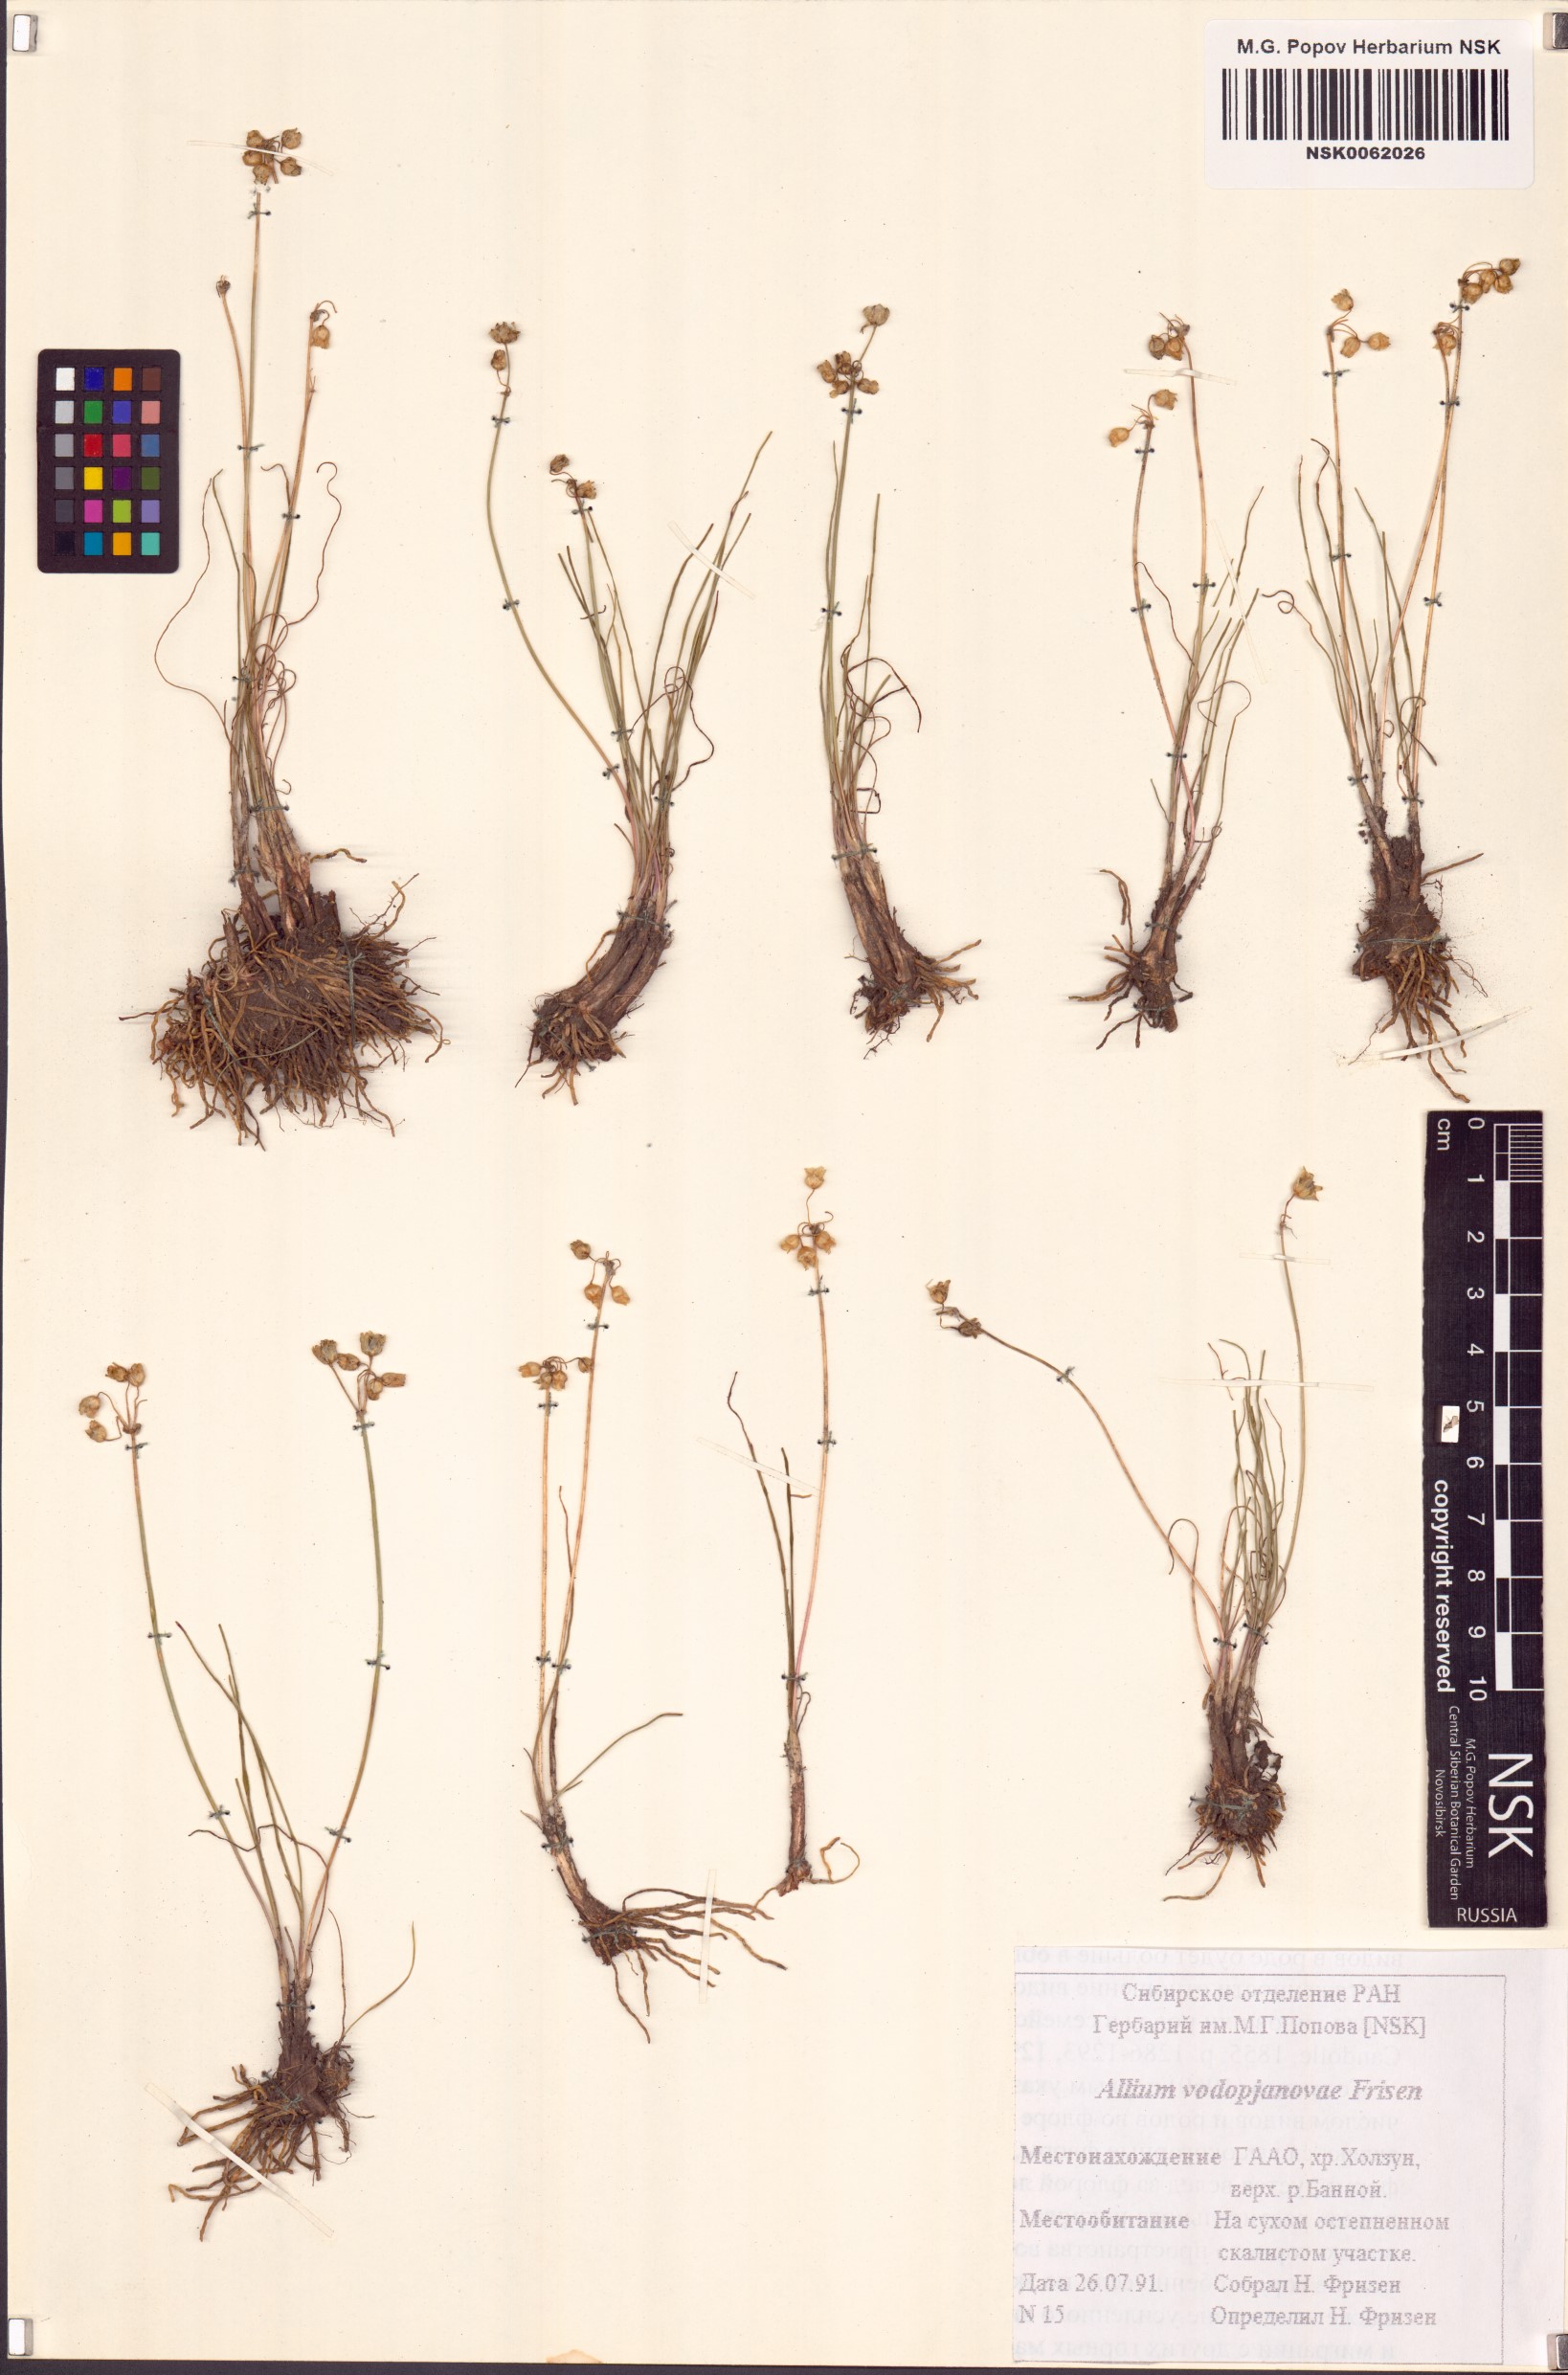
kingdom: Plantae
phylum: Tracheophyta
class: Liliopsida
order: Asparagales
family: Amaryllidaceae
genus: Allium
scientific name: Allium vodopjanovae
